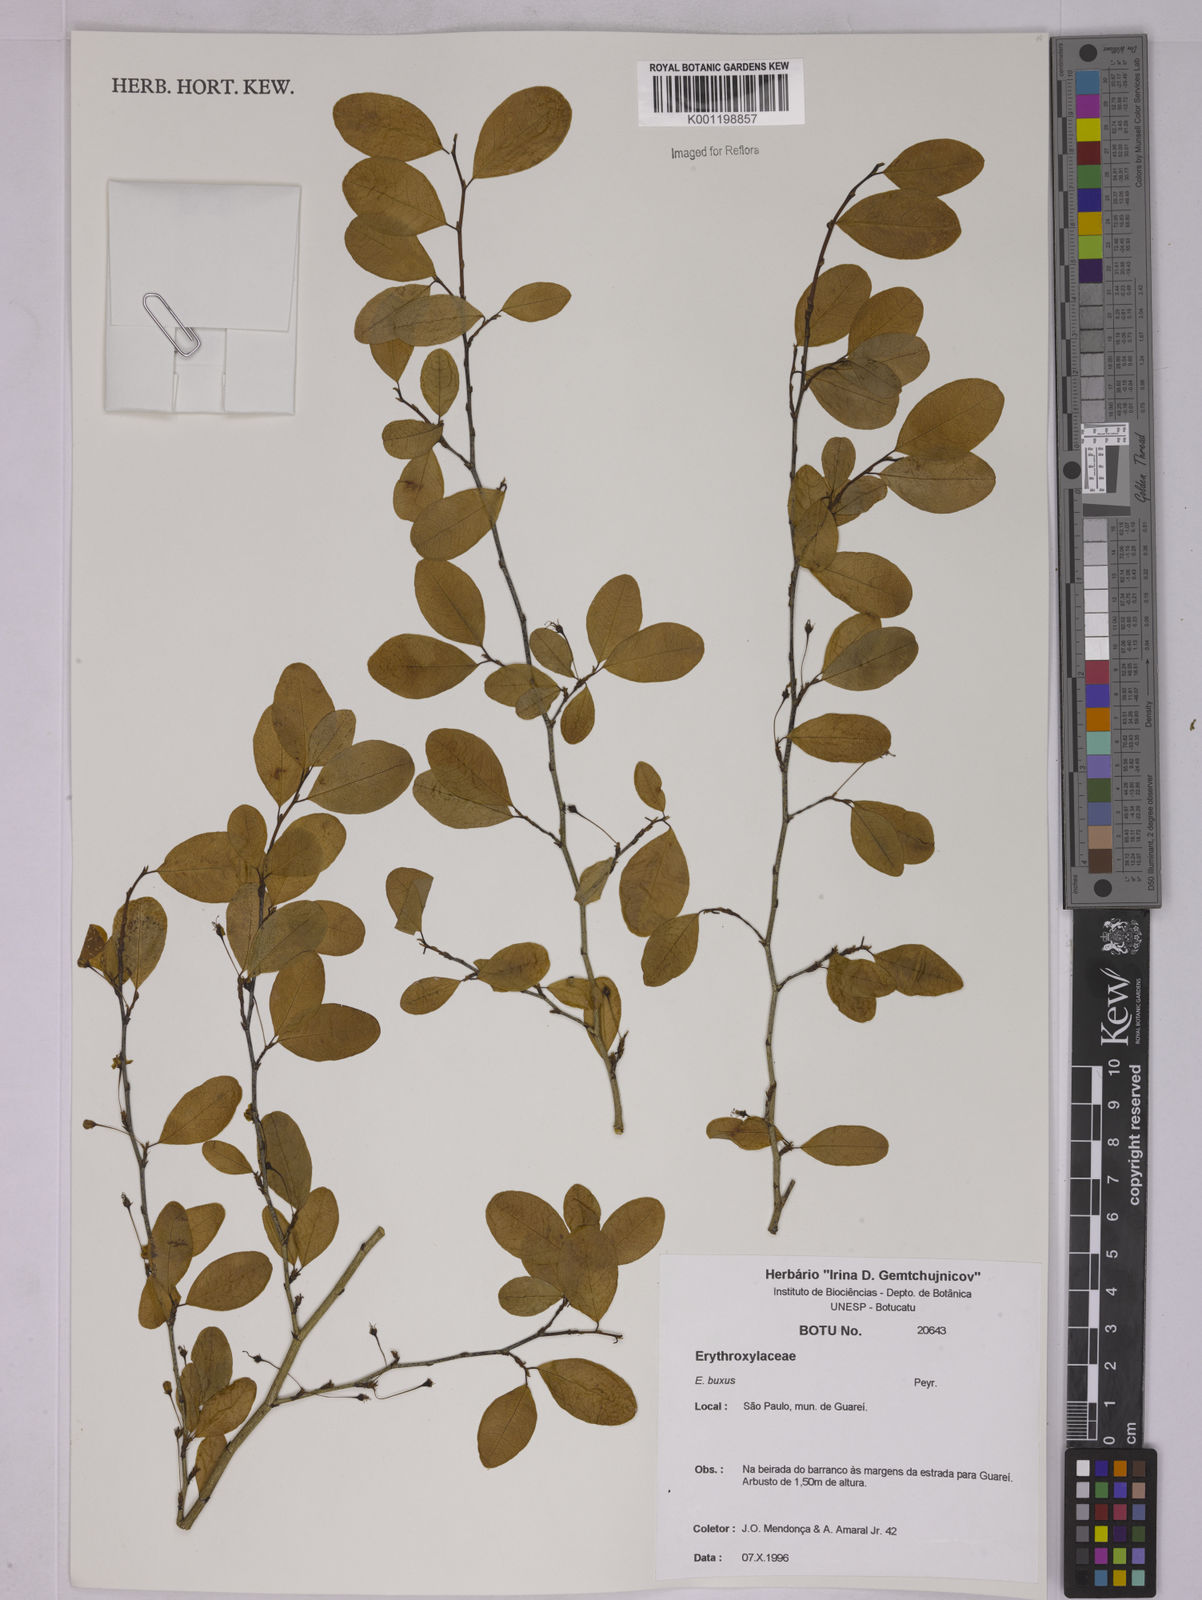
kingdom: Plantae
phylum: Tracheophyta
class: Magnoliopsida
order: Malpighiales
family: Erythroxylaceae
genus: Erythroxylum
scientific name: Erythroxylum buxus
